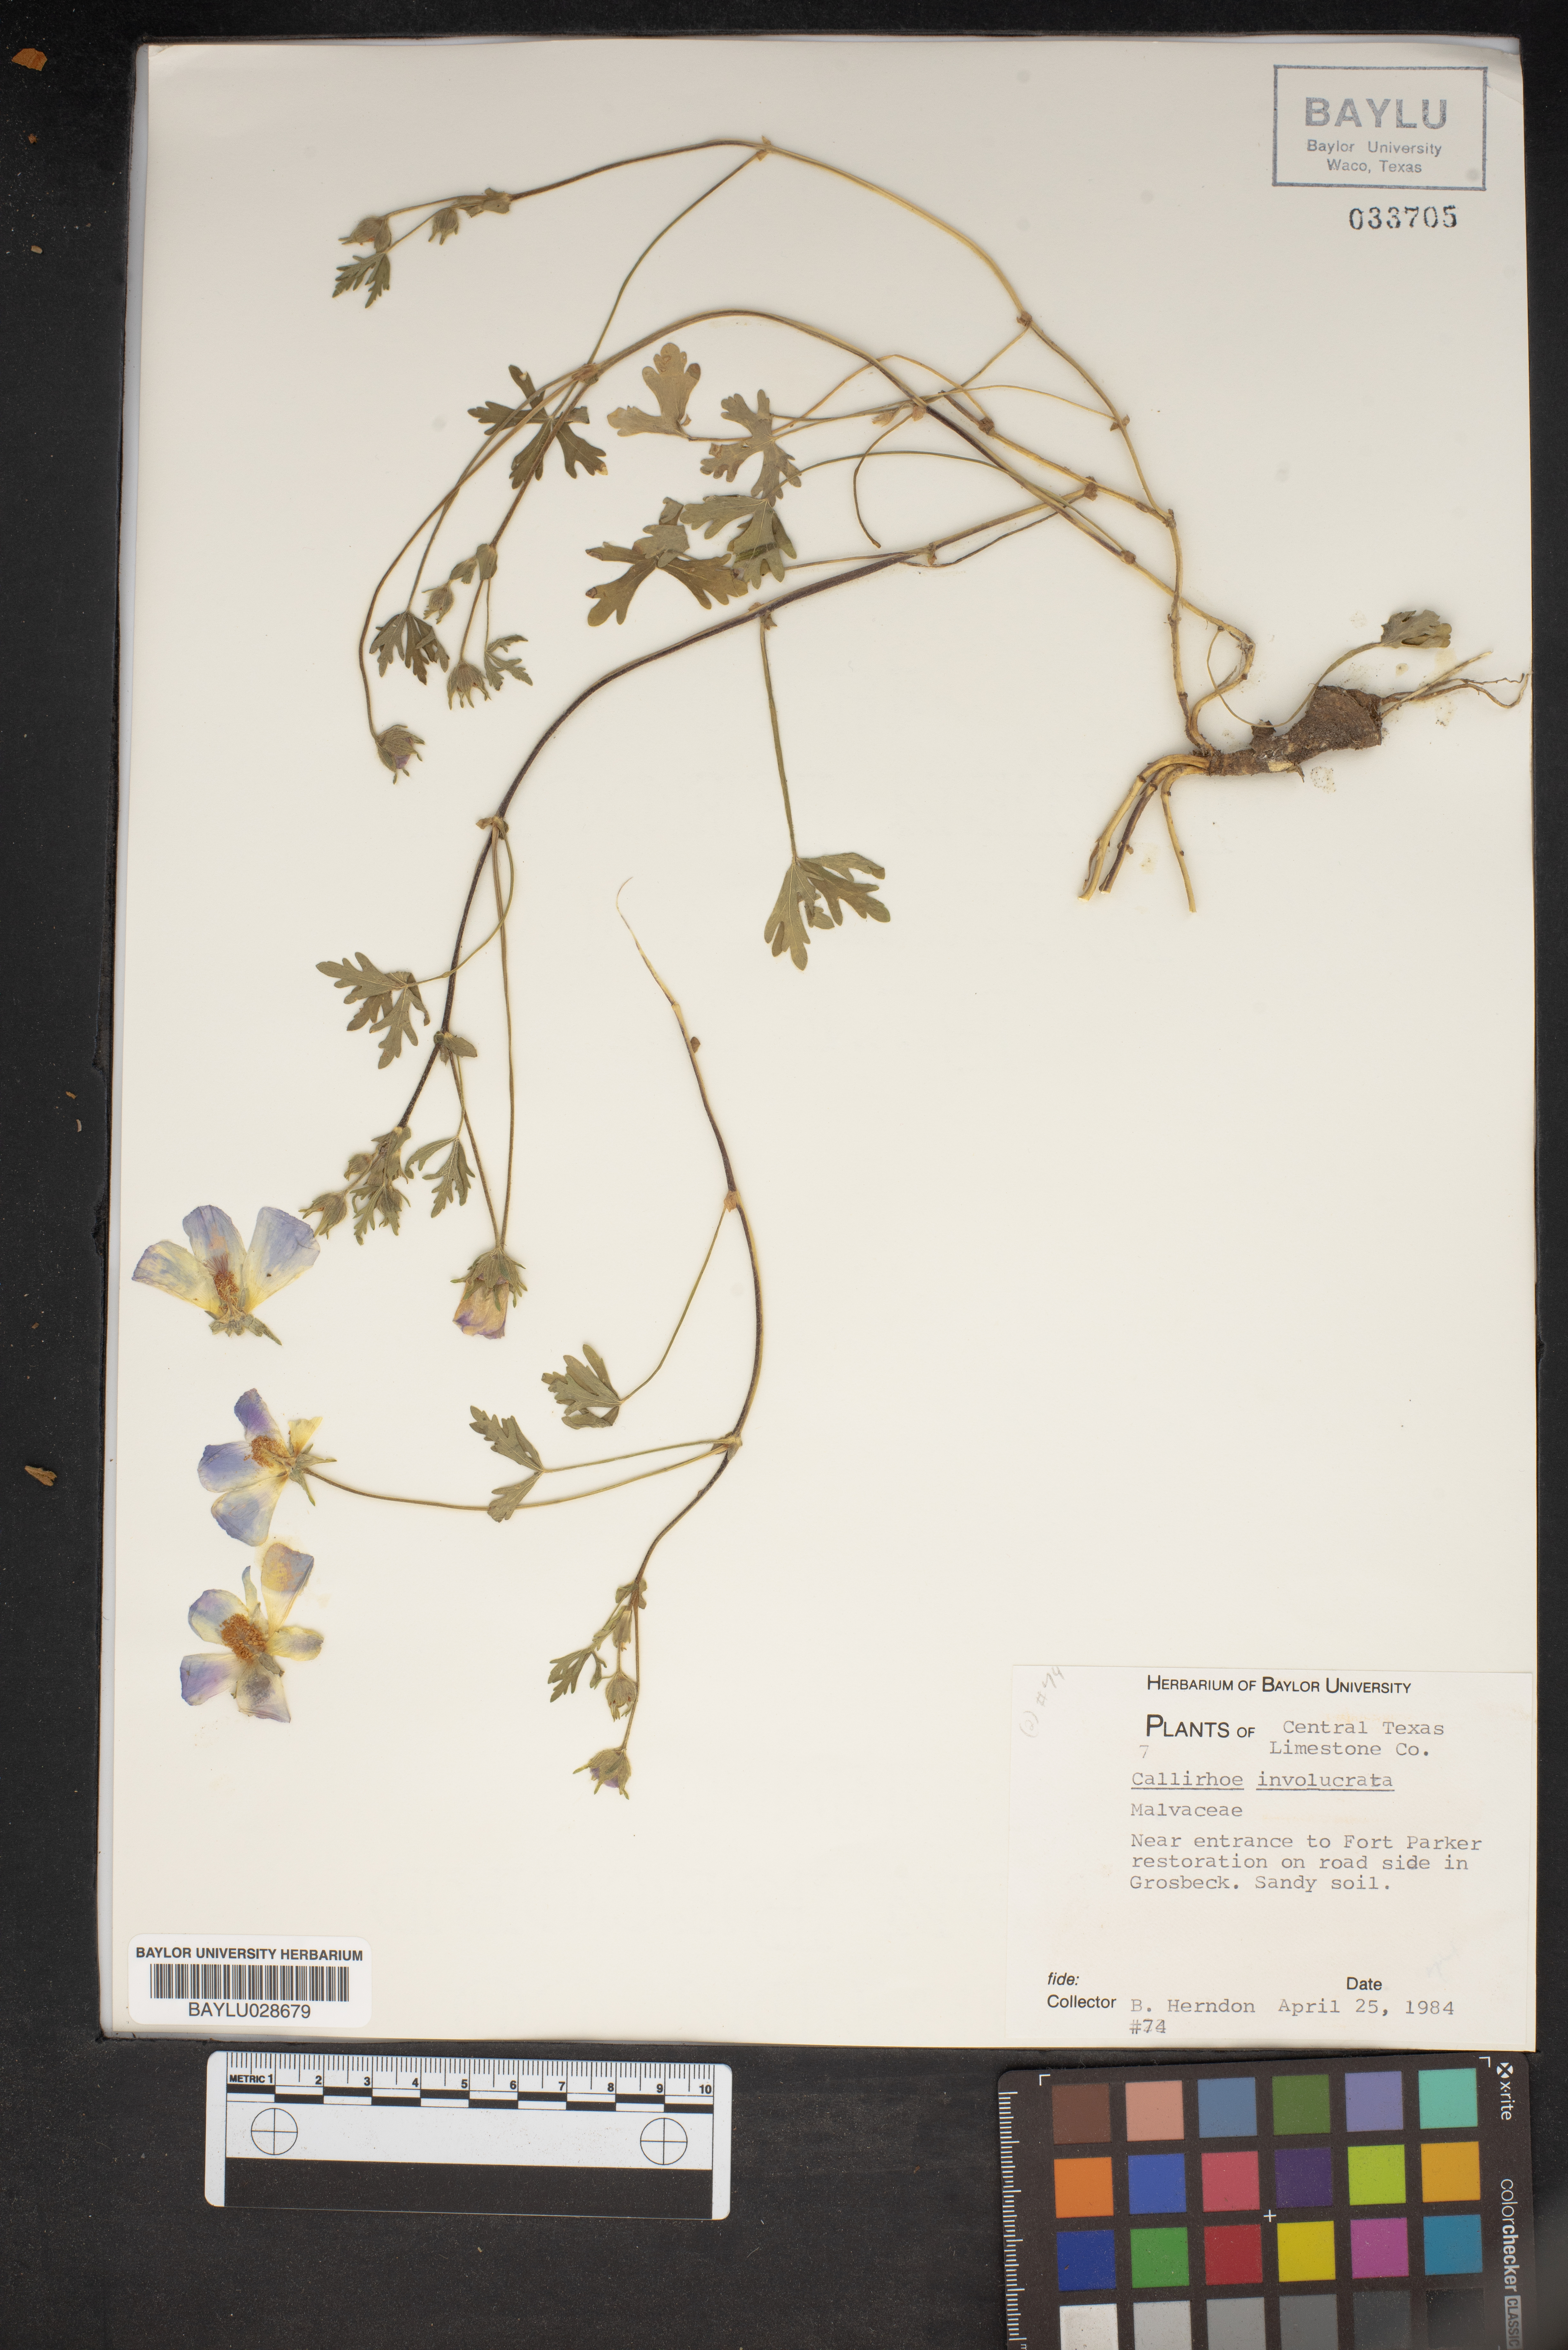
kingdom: Plantae
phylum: Tracheophyta
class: Magnoliopsida
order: Malvales
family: Malvaceae
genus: Callirhoe
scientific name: Callirhoe involucrata
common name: Purple poppy-mallow
